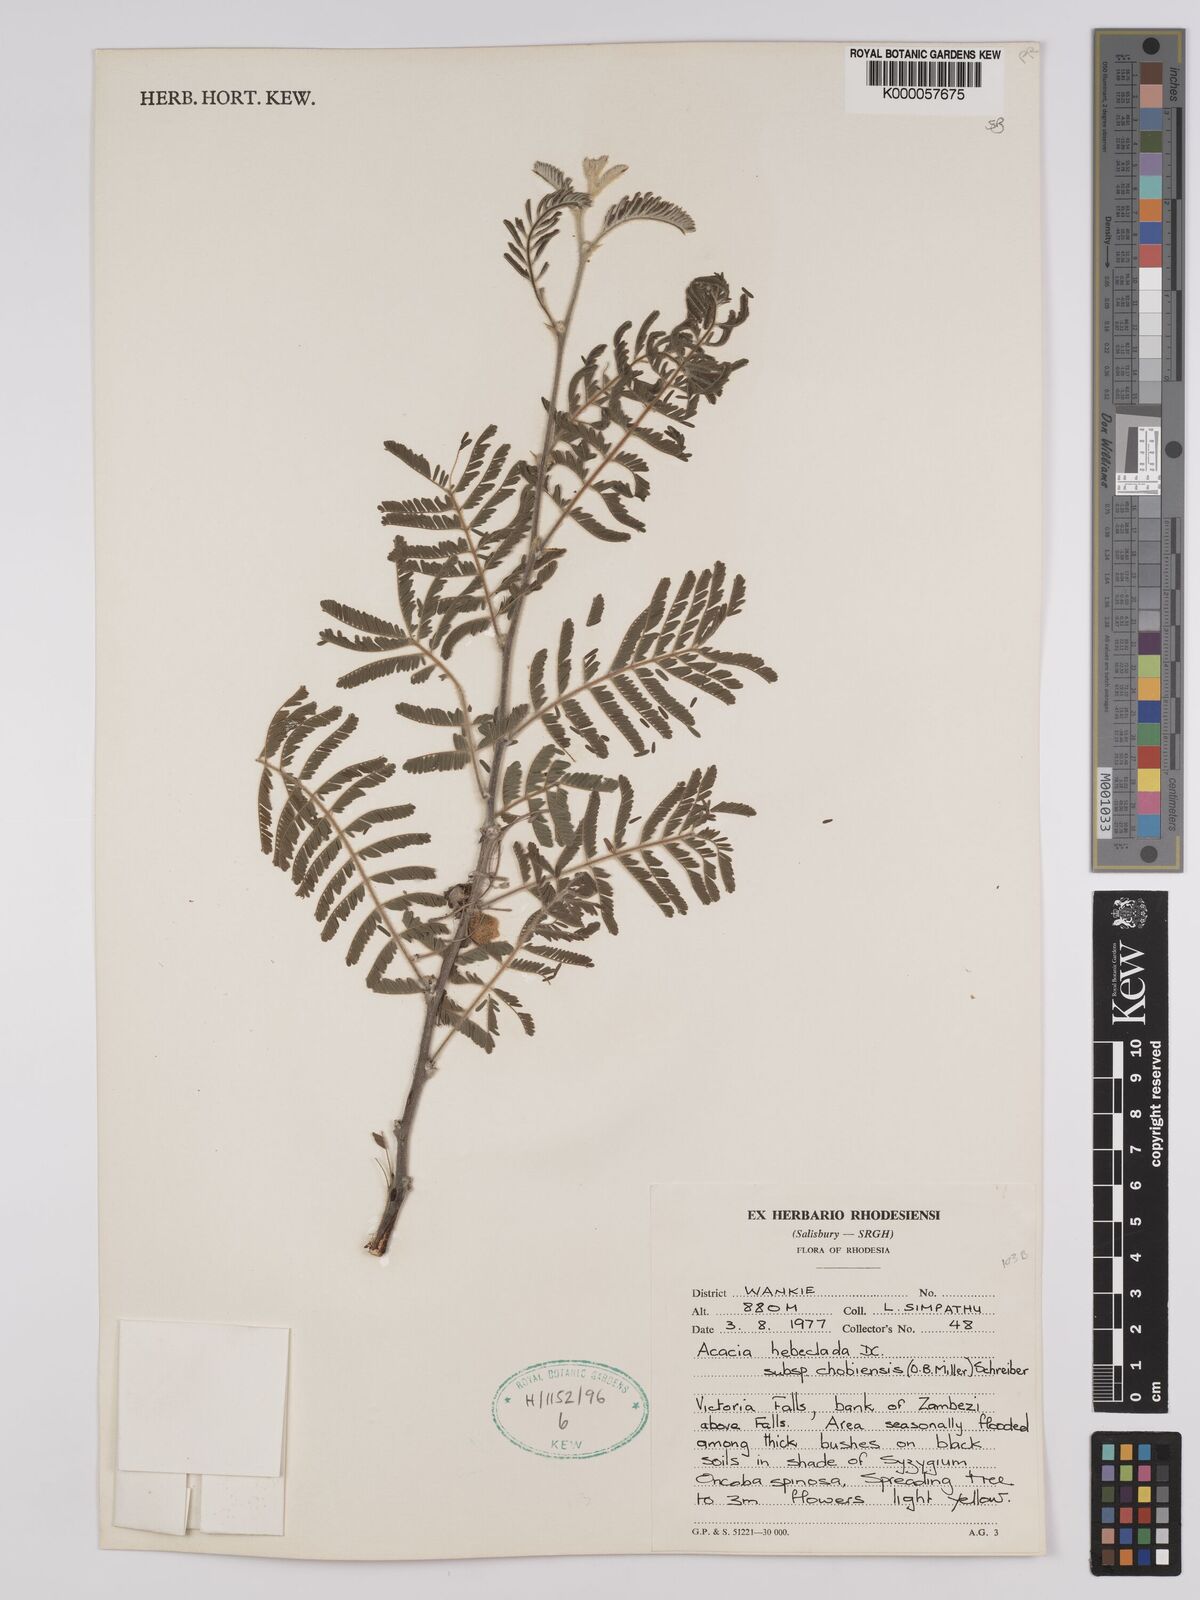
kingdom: Plantae
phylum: Tracheophyta
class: Magnoliopsida
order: Fabales
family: Fabaceae
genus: Vachellia
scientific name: Vachellia hebeclada
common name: Candle thorn
